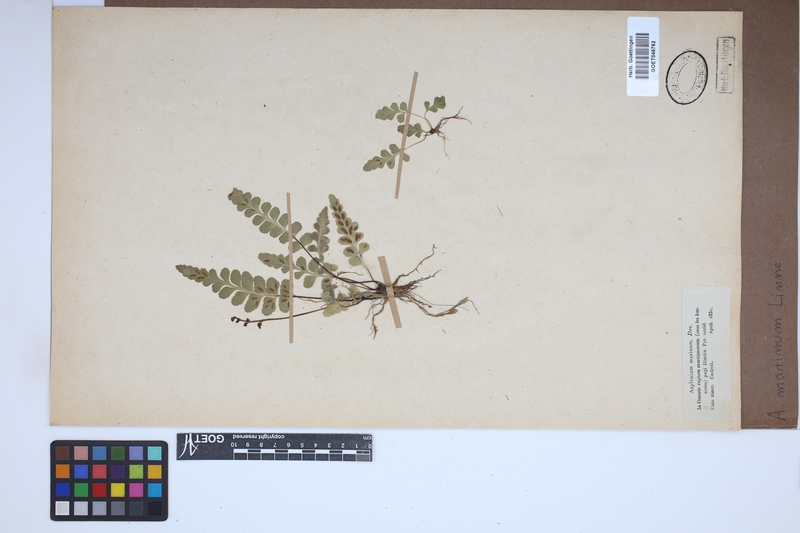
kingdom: Plantae
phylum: Tracheophyta
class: Polypodiopsida
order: Polypodiales
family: Aspleniaceae
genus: Asplenium
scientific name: Asplenium marinum
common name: Sea spleenwort
